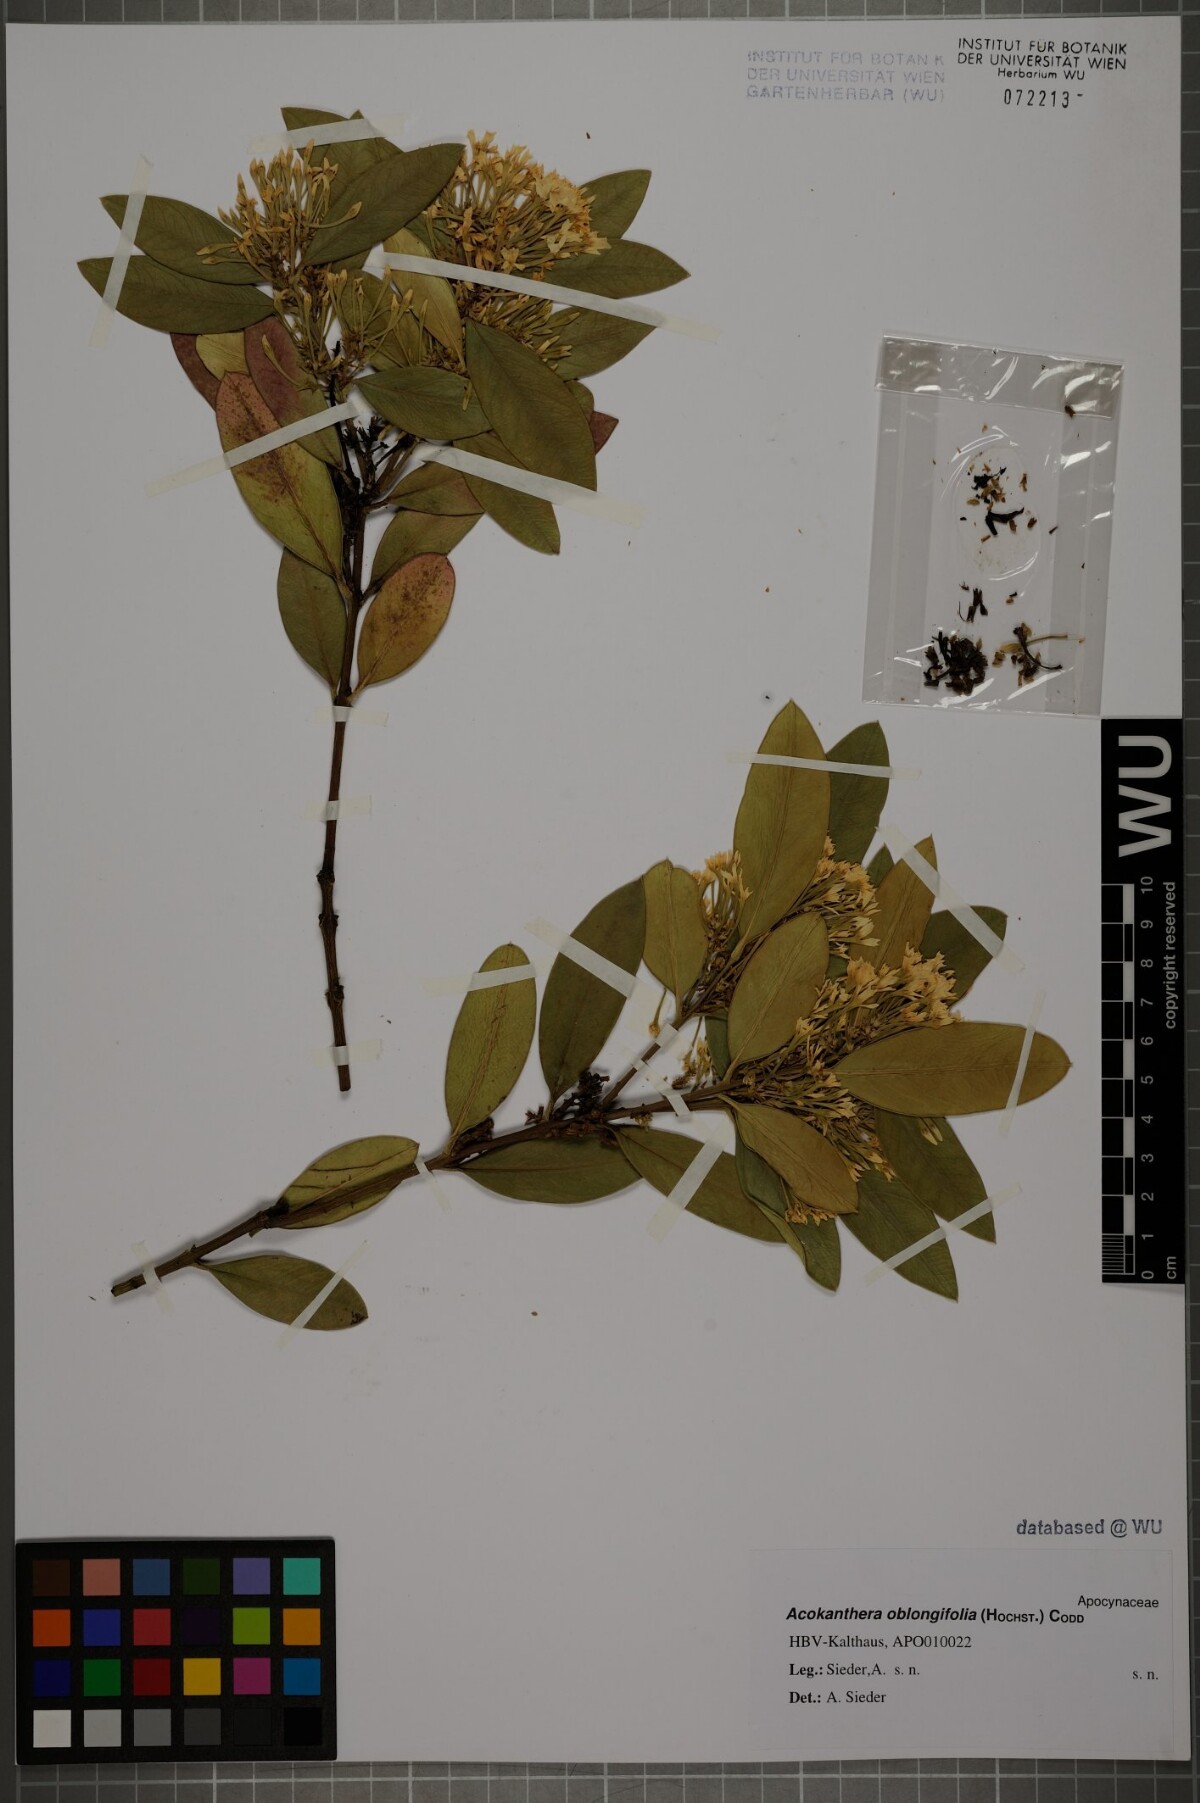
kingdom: Plantae
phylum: Tracheophyta
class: Magnoliopsida
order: Gentianales
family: Apocynaceae
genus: Acokanthera
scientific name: Acokanthera oblongifolia
